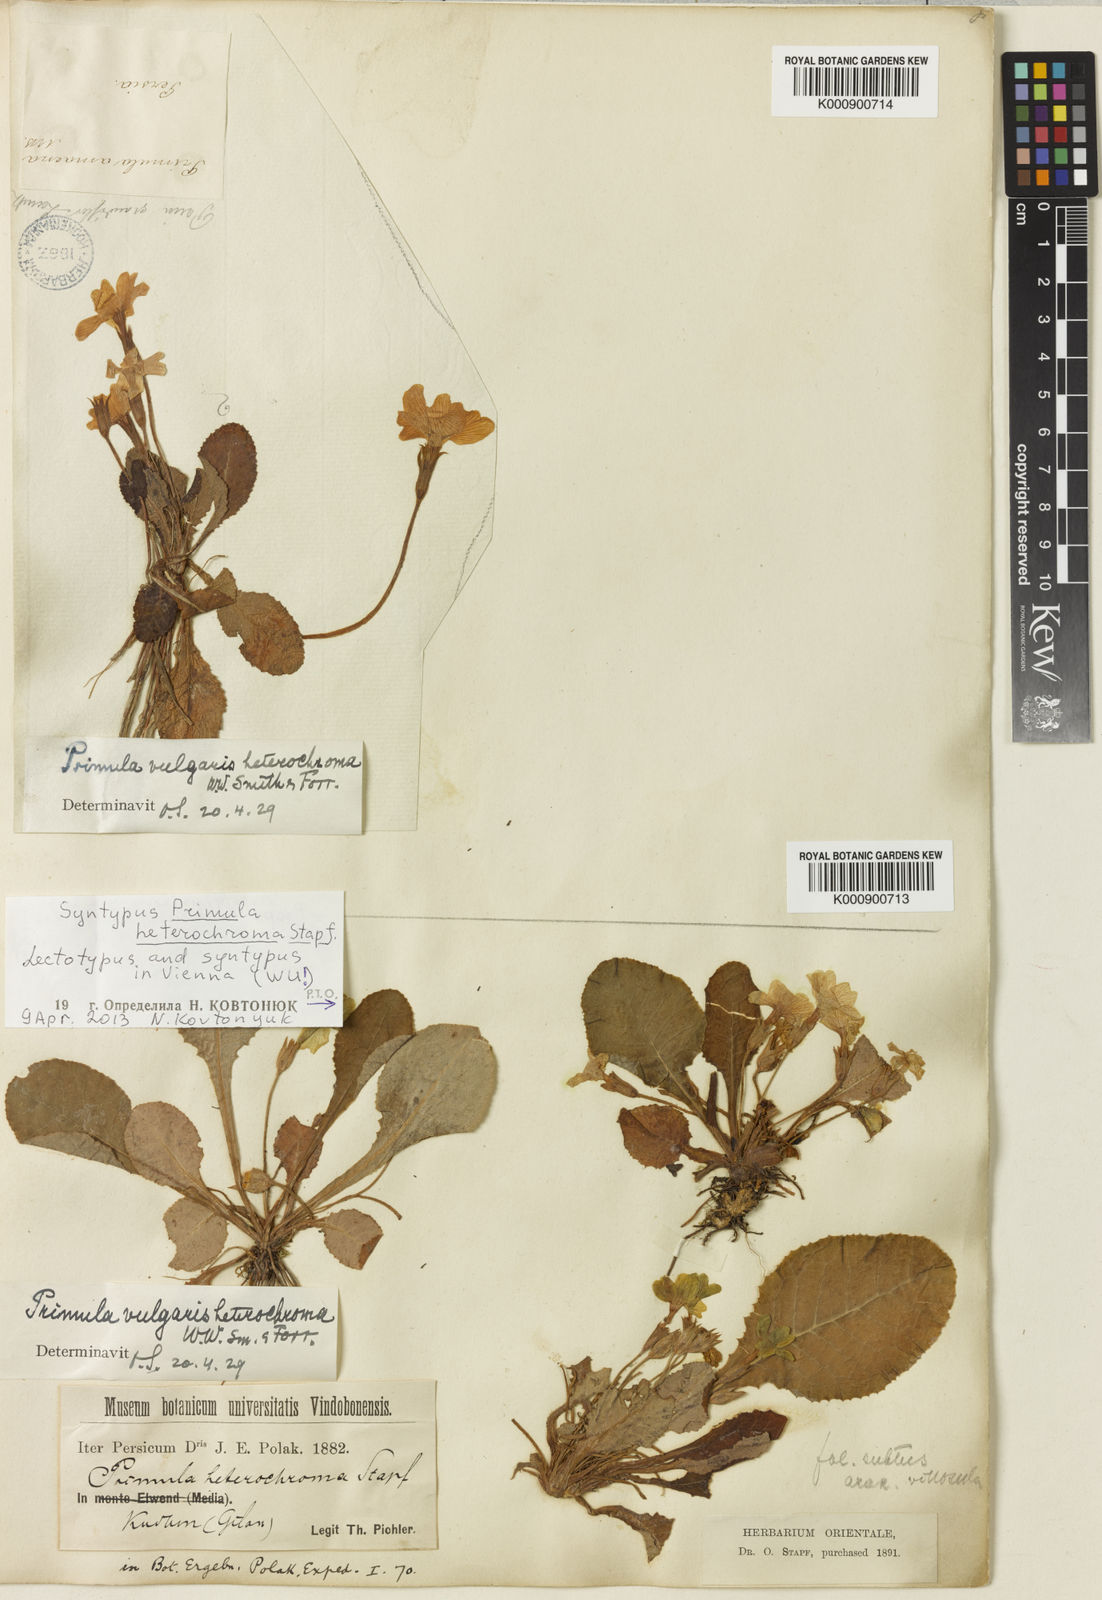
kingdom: Plantae
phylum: Tracheophyta
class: Magnoliopsida
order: Ericales
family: Primulaceae
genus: Primula
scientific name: Primula heterochroma
